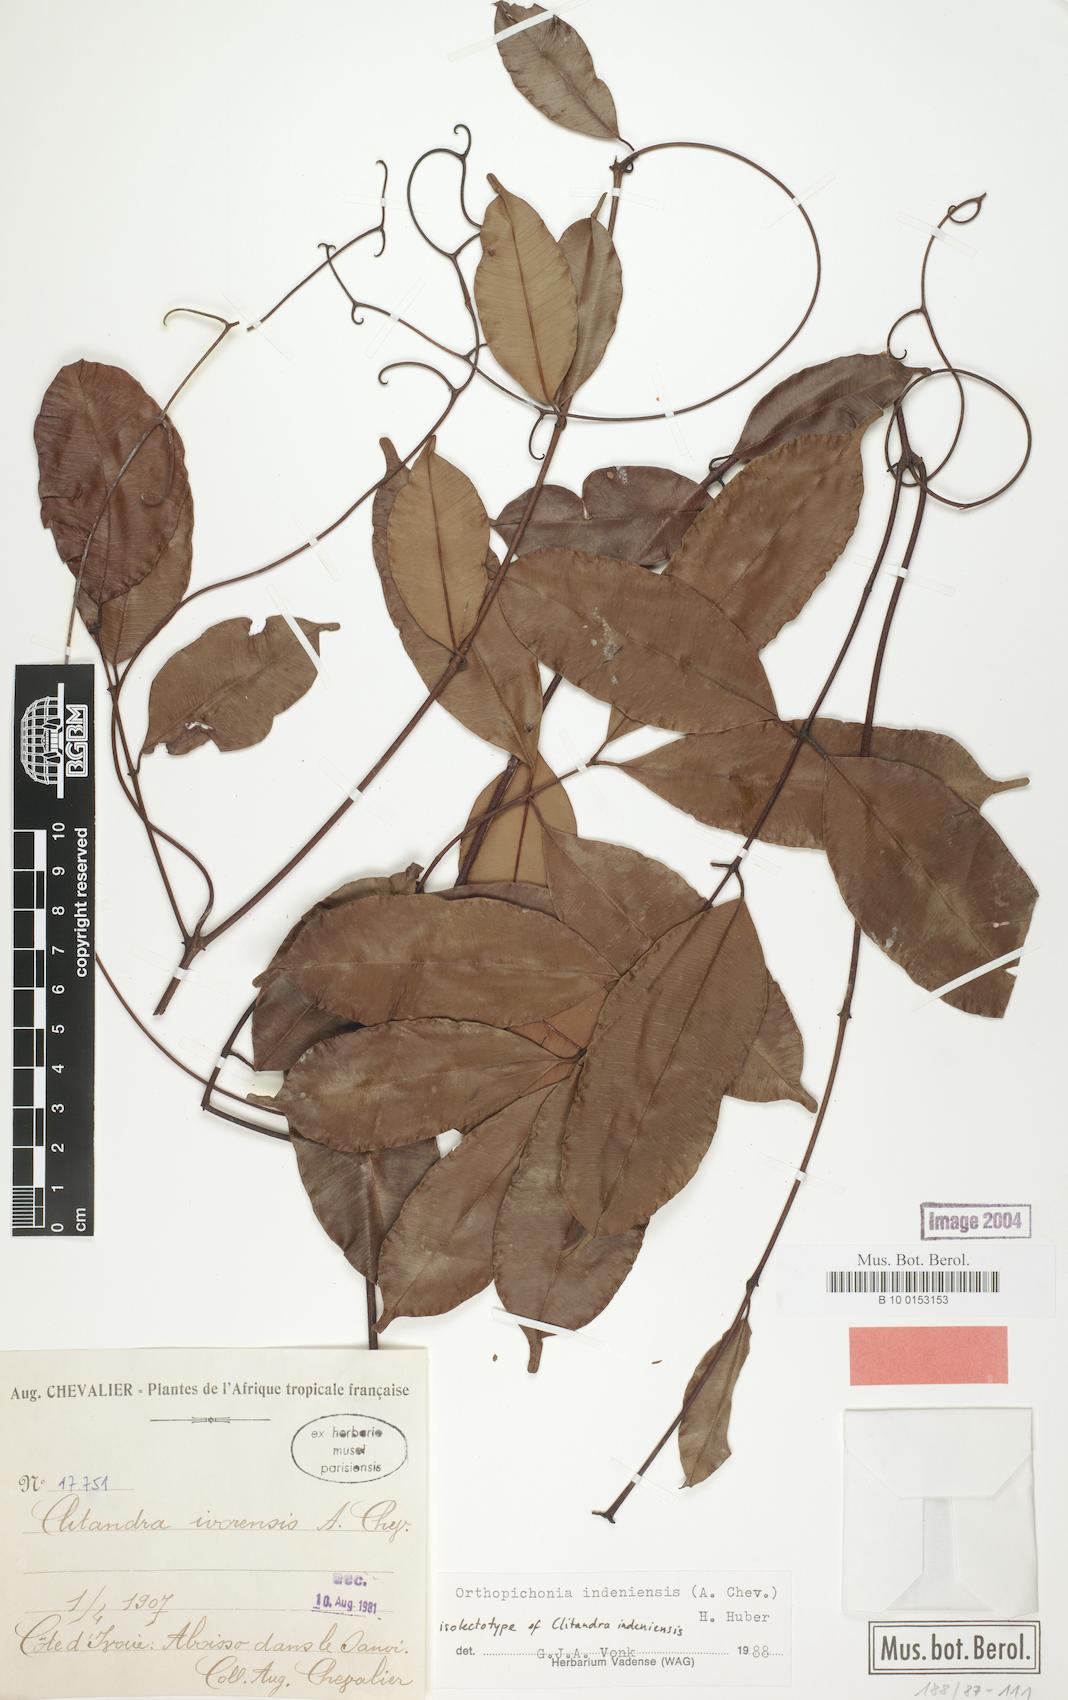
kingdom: Plantae
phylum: Tracheophyta
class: Magnoliopsida
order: Gentianales
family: Apocynaceae
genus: Orthopichonia
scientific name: Orthopichonia indeniensis
